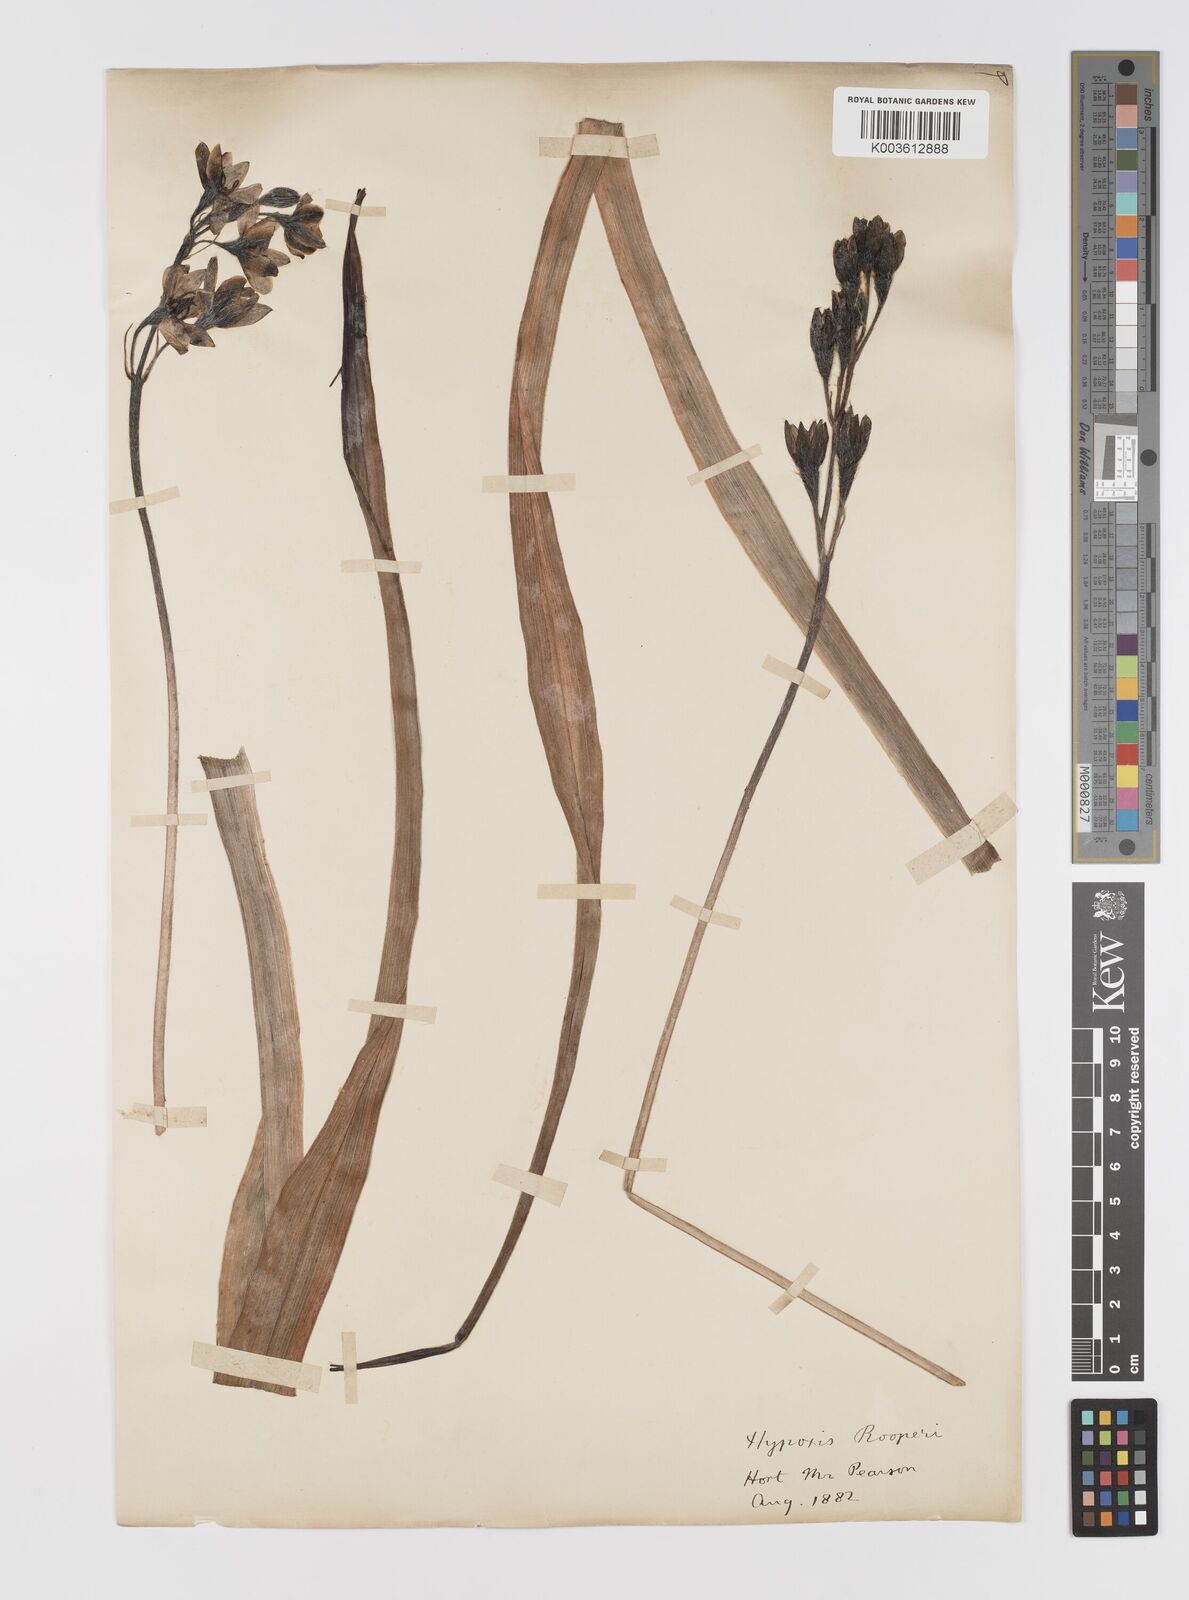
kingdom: Plantae
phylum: Tracheophyta
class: Liliopsida
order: Asparagales
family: Hypoxidaceae
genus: Hypoxis
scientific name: Hypoxis hemerocallidea
